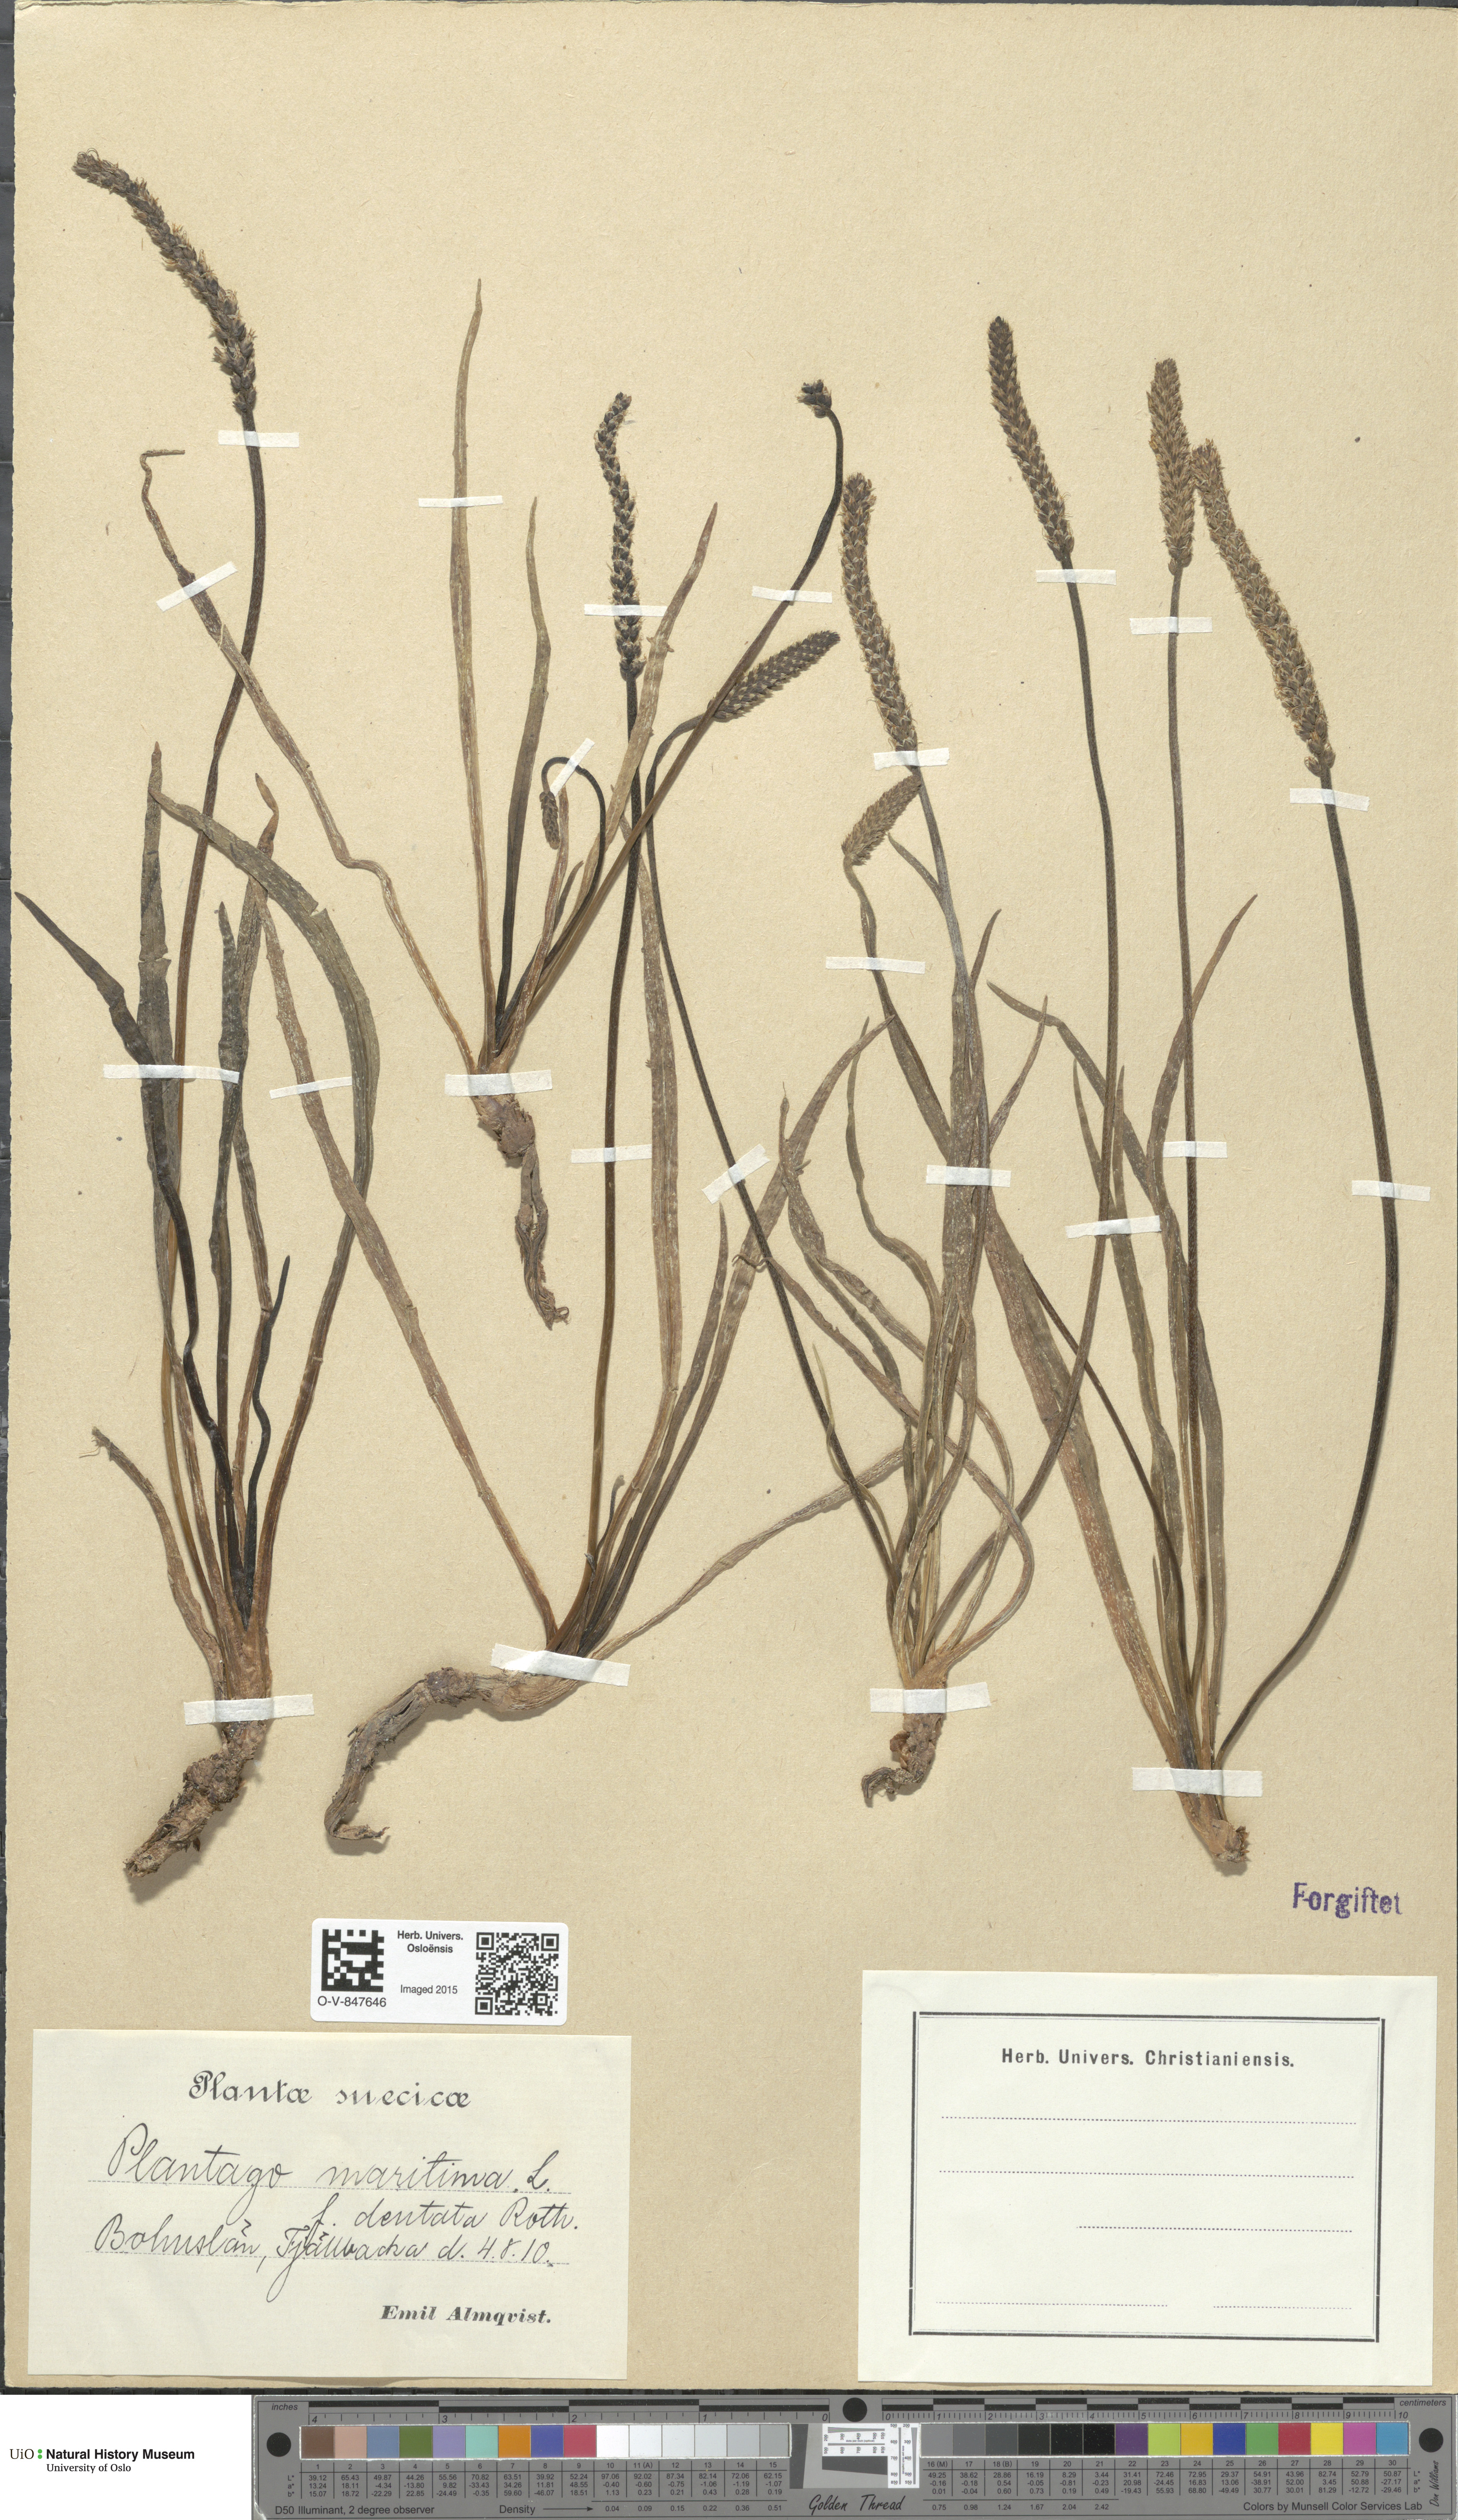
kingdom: Plantae
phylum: Tracheophyta
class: Magnoliopsida
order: Lamiales
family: Plantaginaceae
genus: Plantago
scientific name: Plantago maritima
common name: Sea plantain
